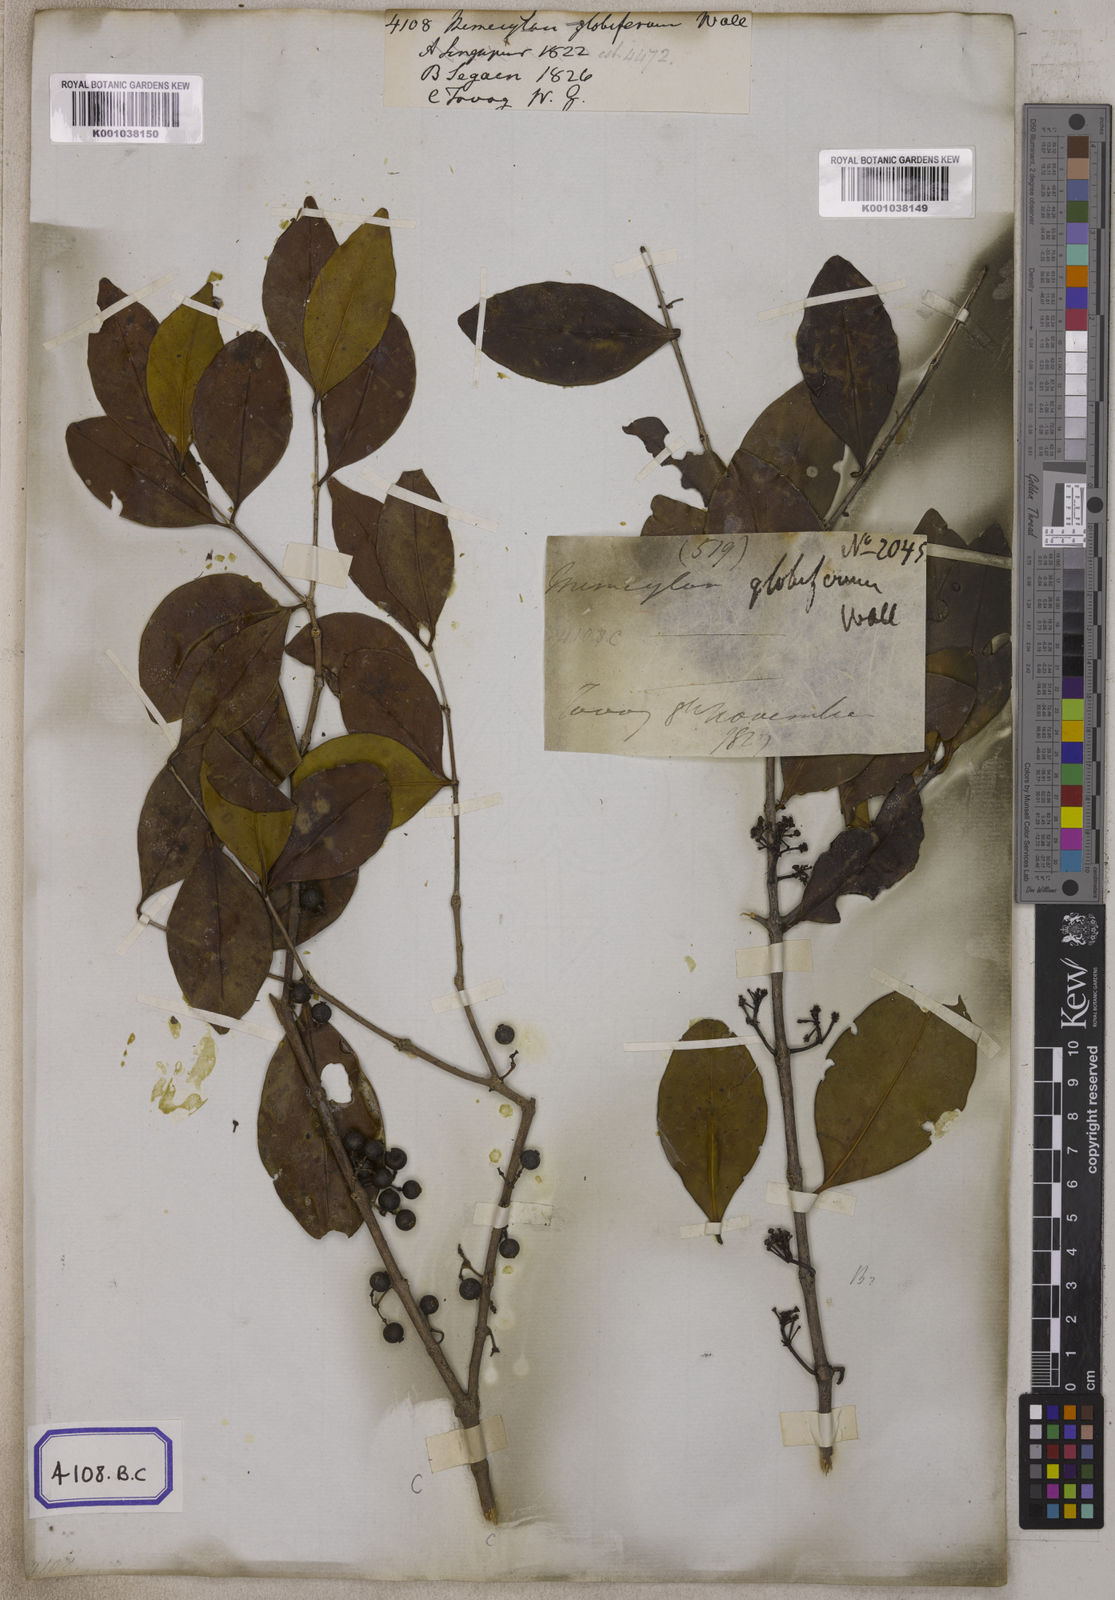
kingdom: Plantae
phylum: Tracheophyta
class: Magnoliopsida
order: Myrtales
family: Melastomataceae
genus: Memecylon
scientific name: Memecylon edule
